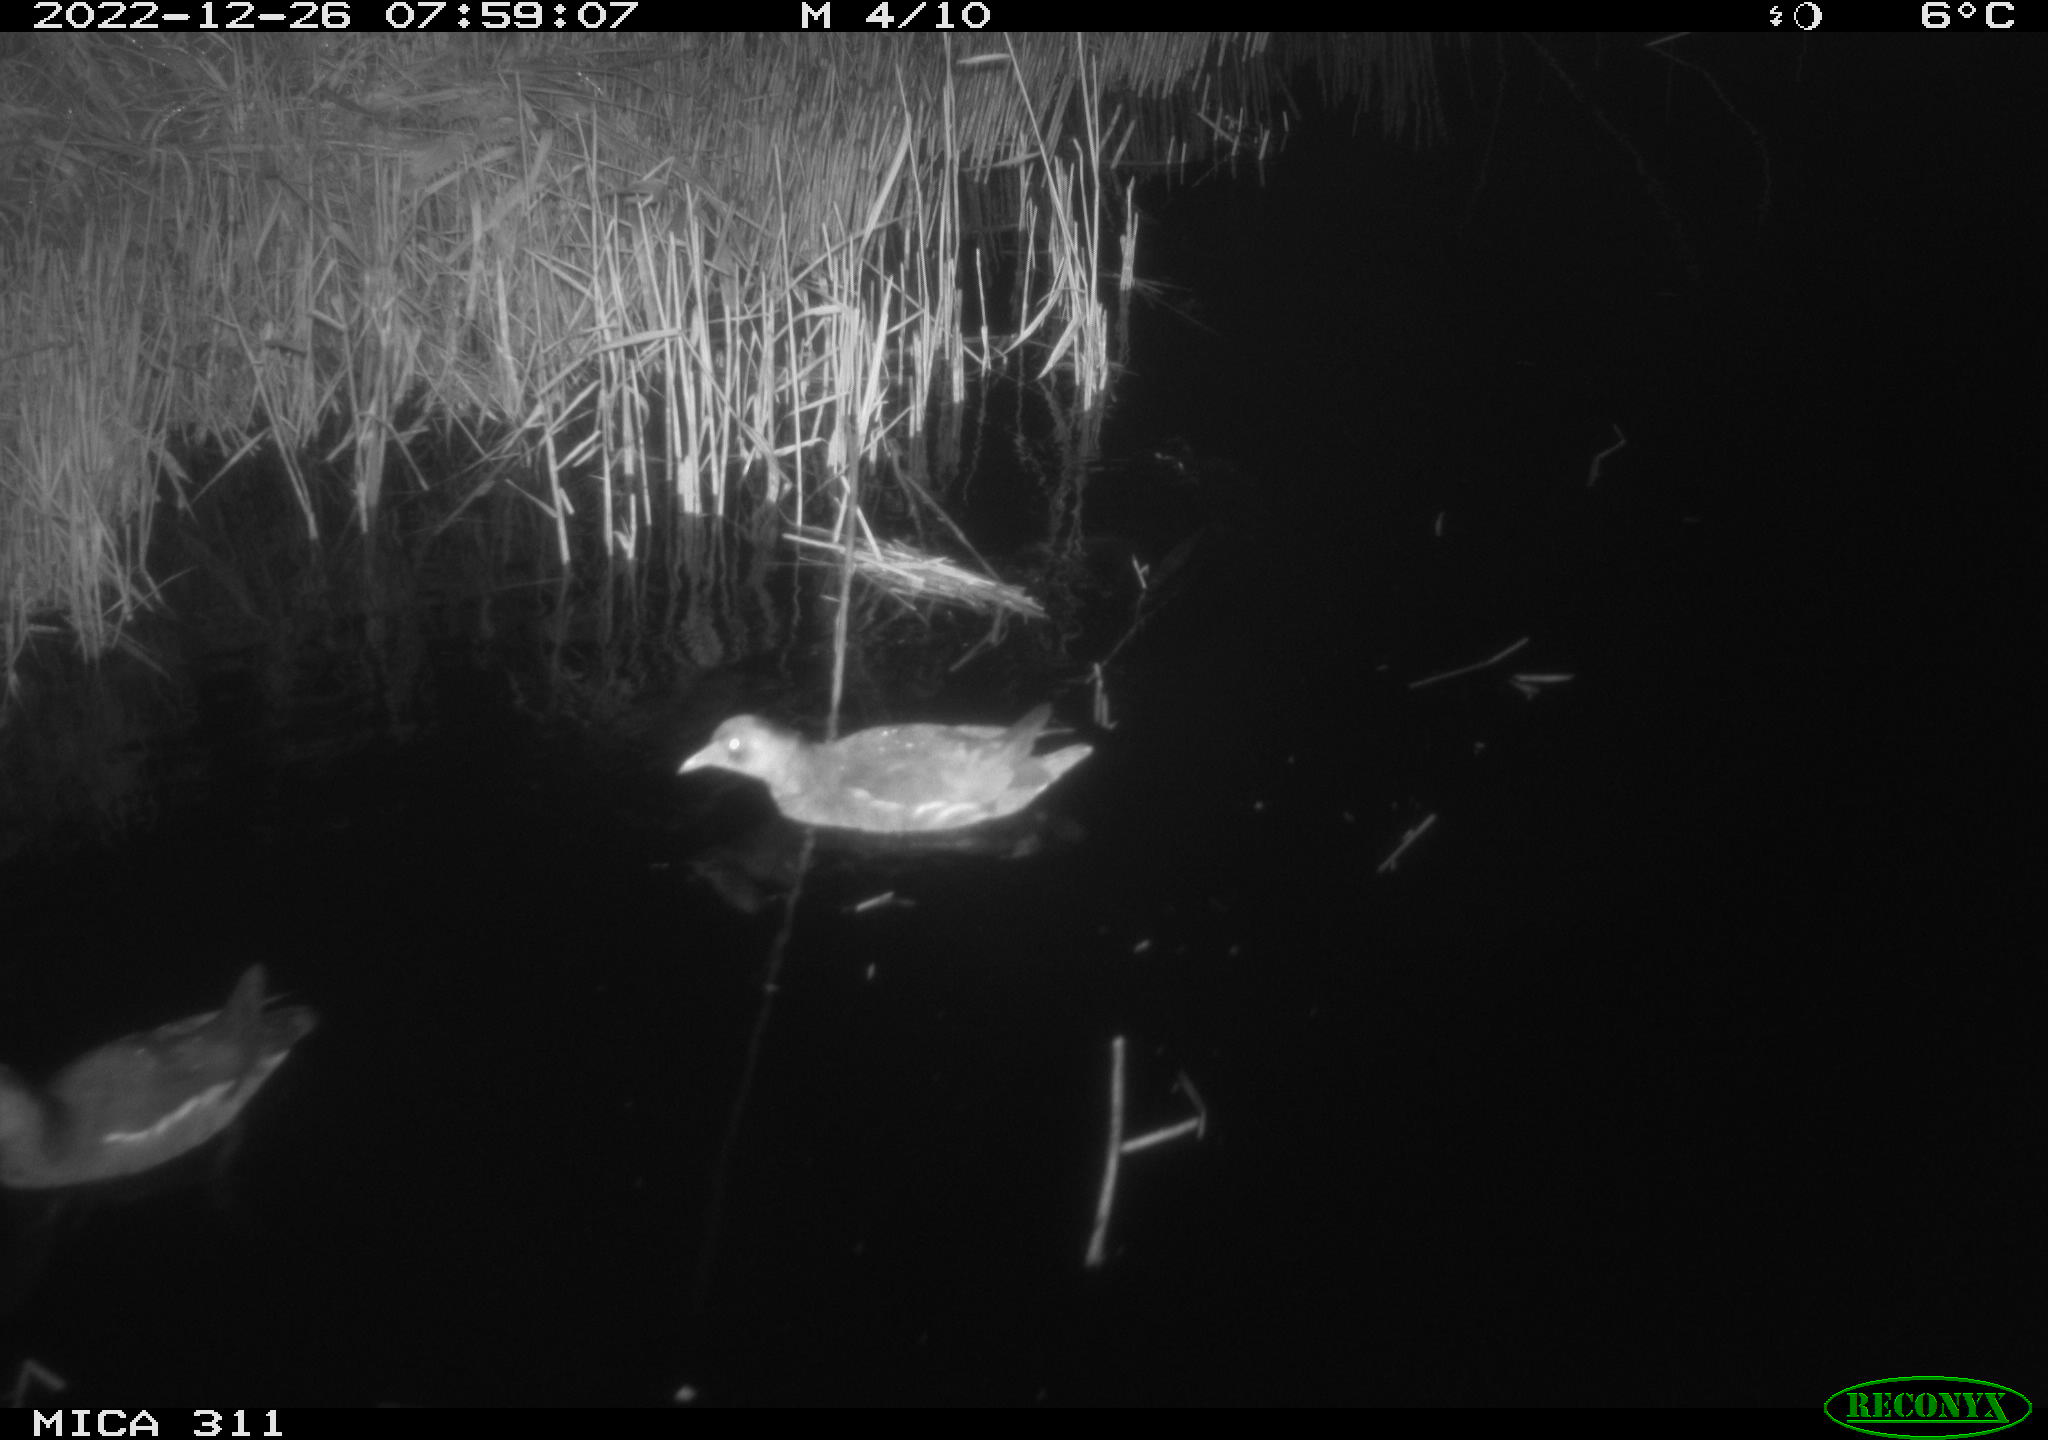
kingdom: Animalia
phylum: Chordata
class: Aves
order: Gruiformes
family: Rallidae
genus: Gallinula
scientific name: Gallinula chloropus
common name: Common moorhen
